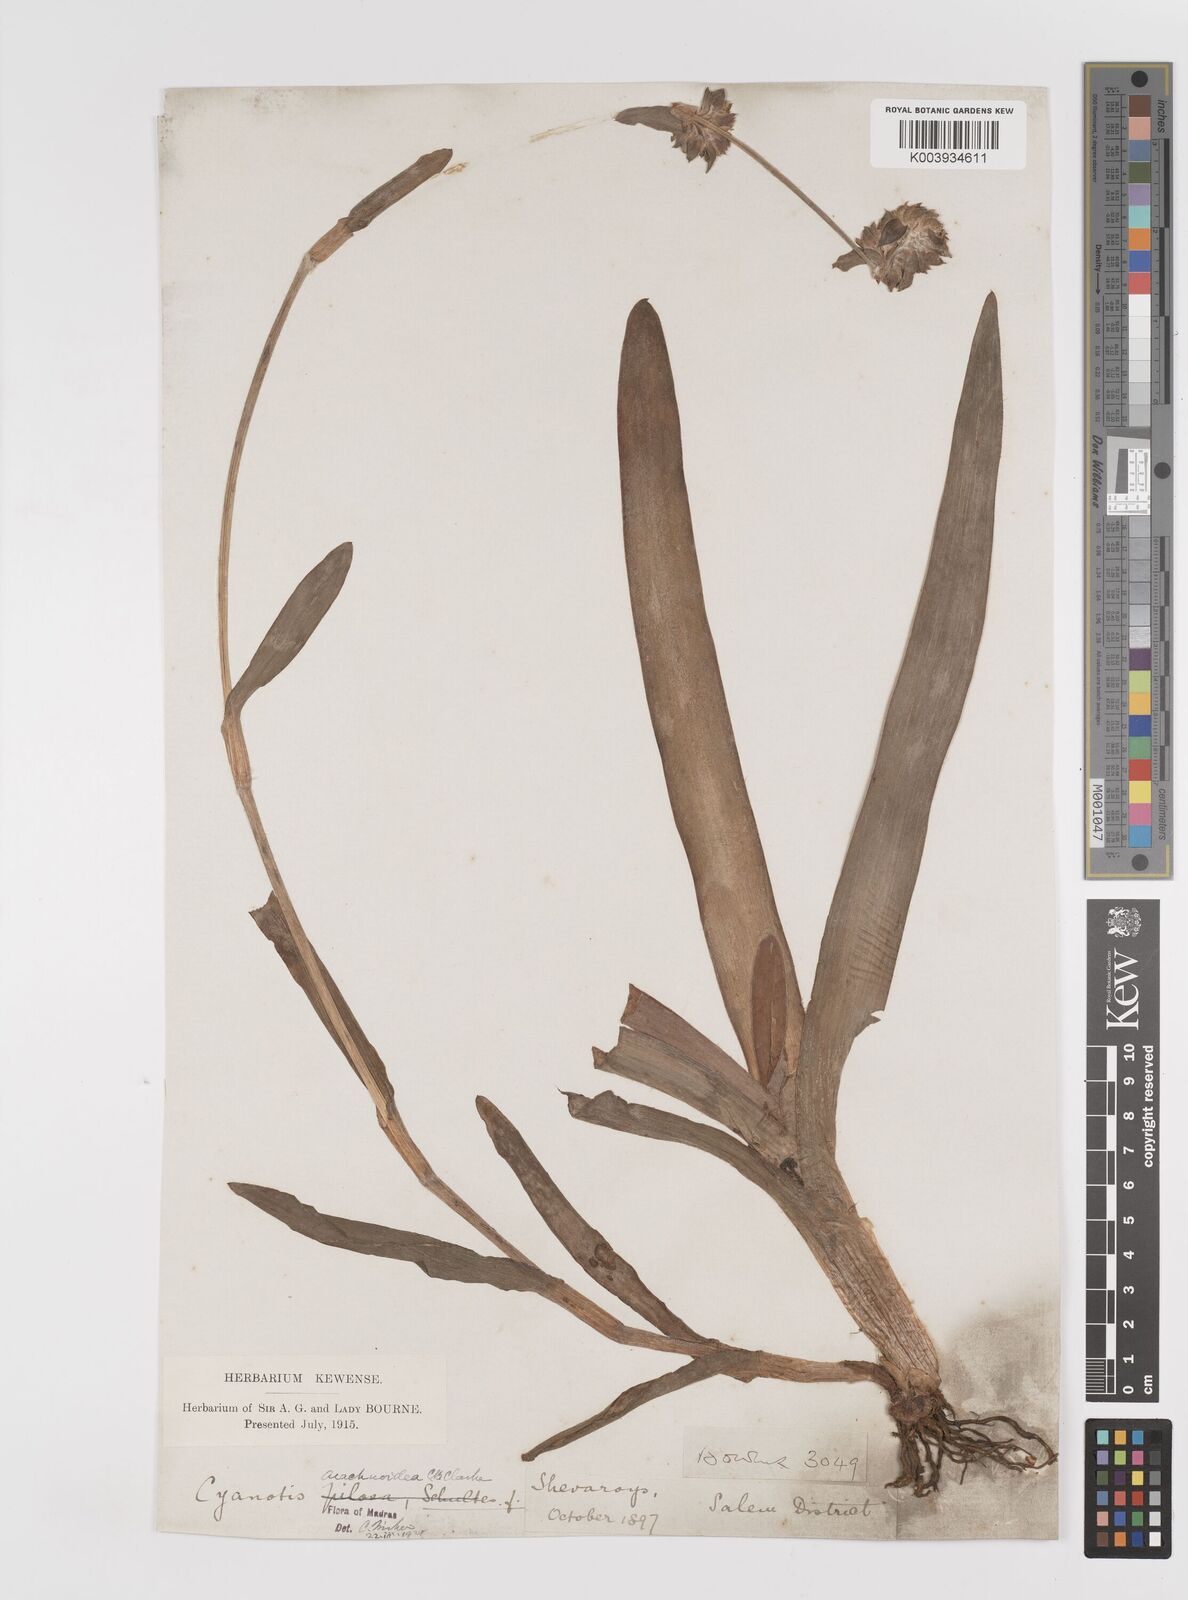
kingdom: Plantae
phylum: Tracheophyta
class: Liliopsida
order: Commelinales
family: Commelinaceae
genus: Cyanotis
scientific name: Cyanotis arachnoidea
